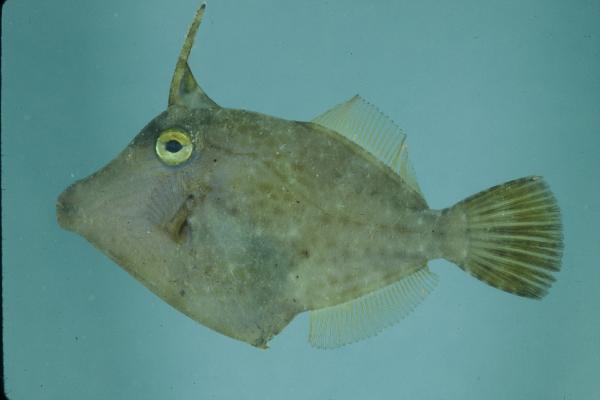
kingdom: Animalia
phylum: Chordata
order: Tetraodontiformes
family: Monacanthidae
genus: Cantherhines
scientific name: Cantherhines pardalis
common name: Honeycomb filefish
